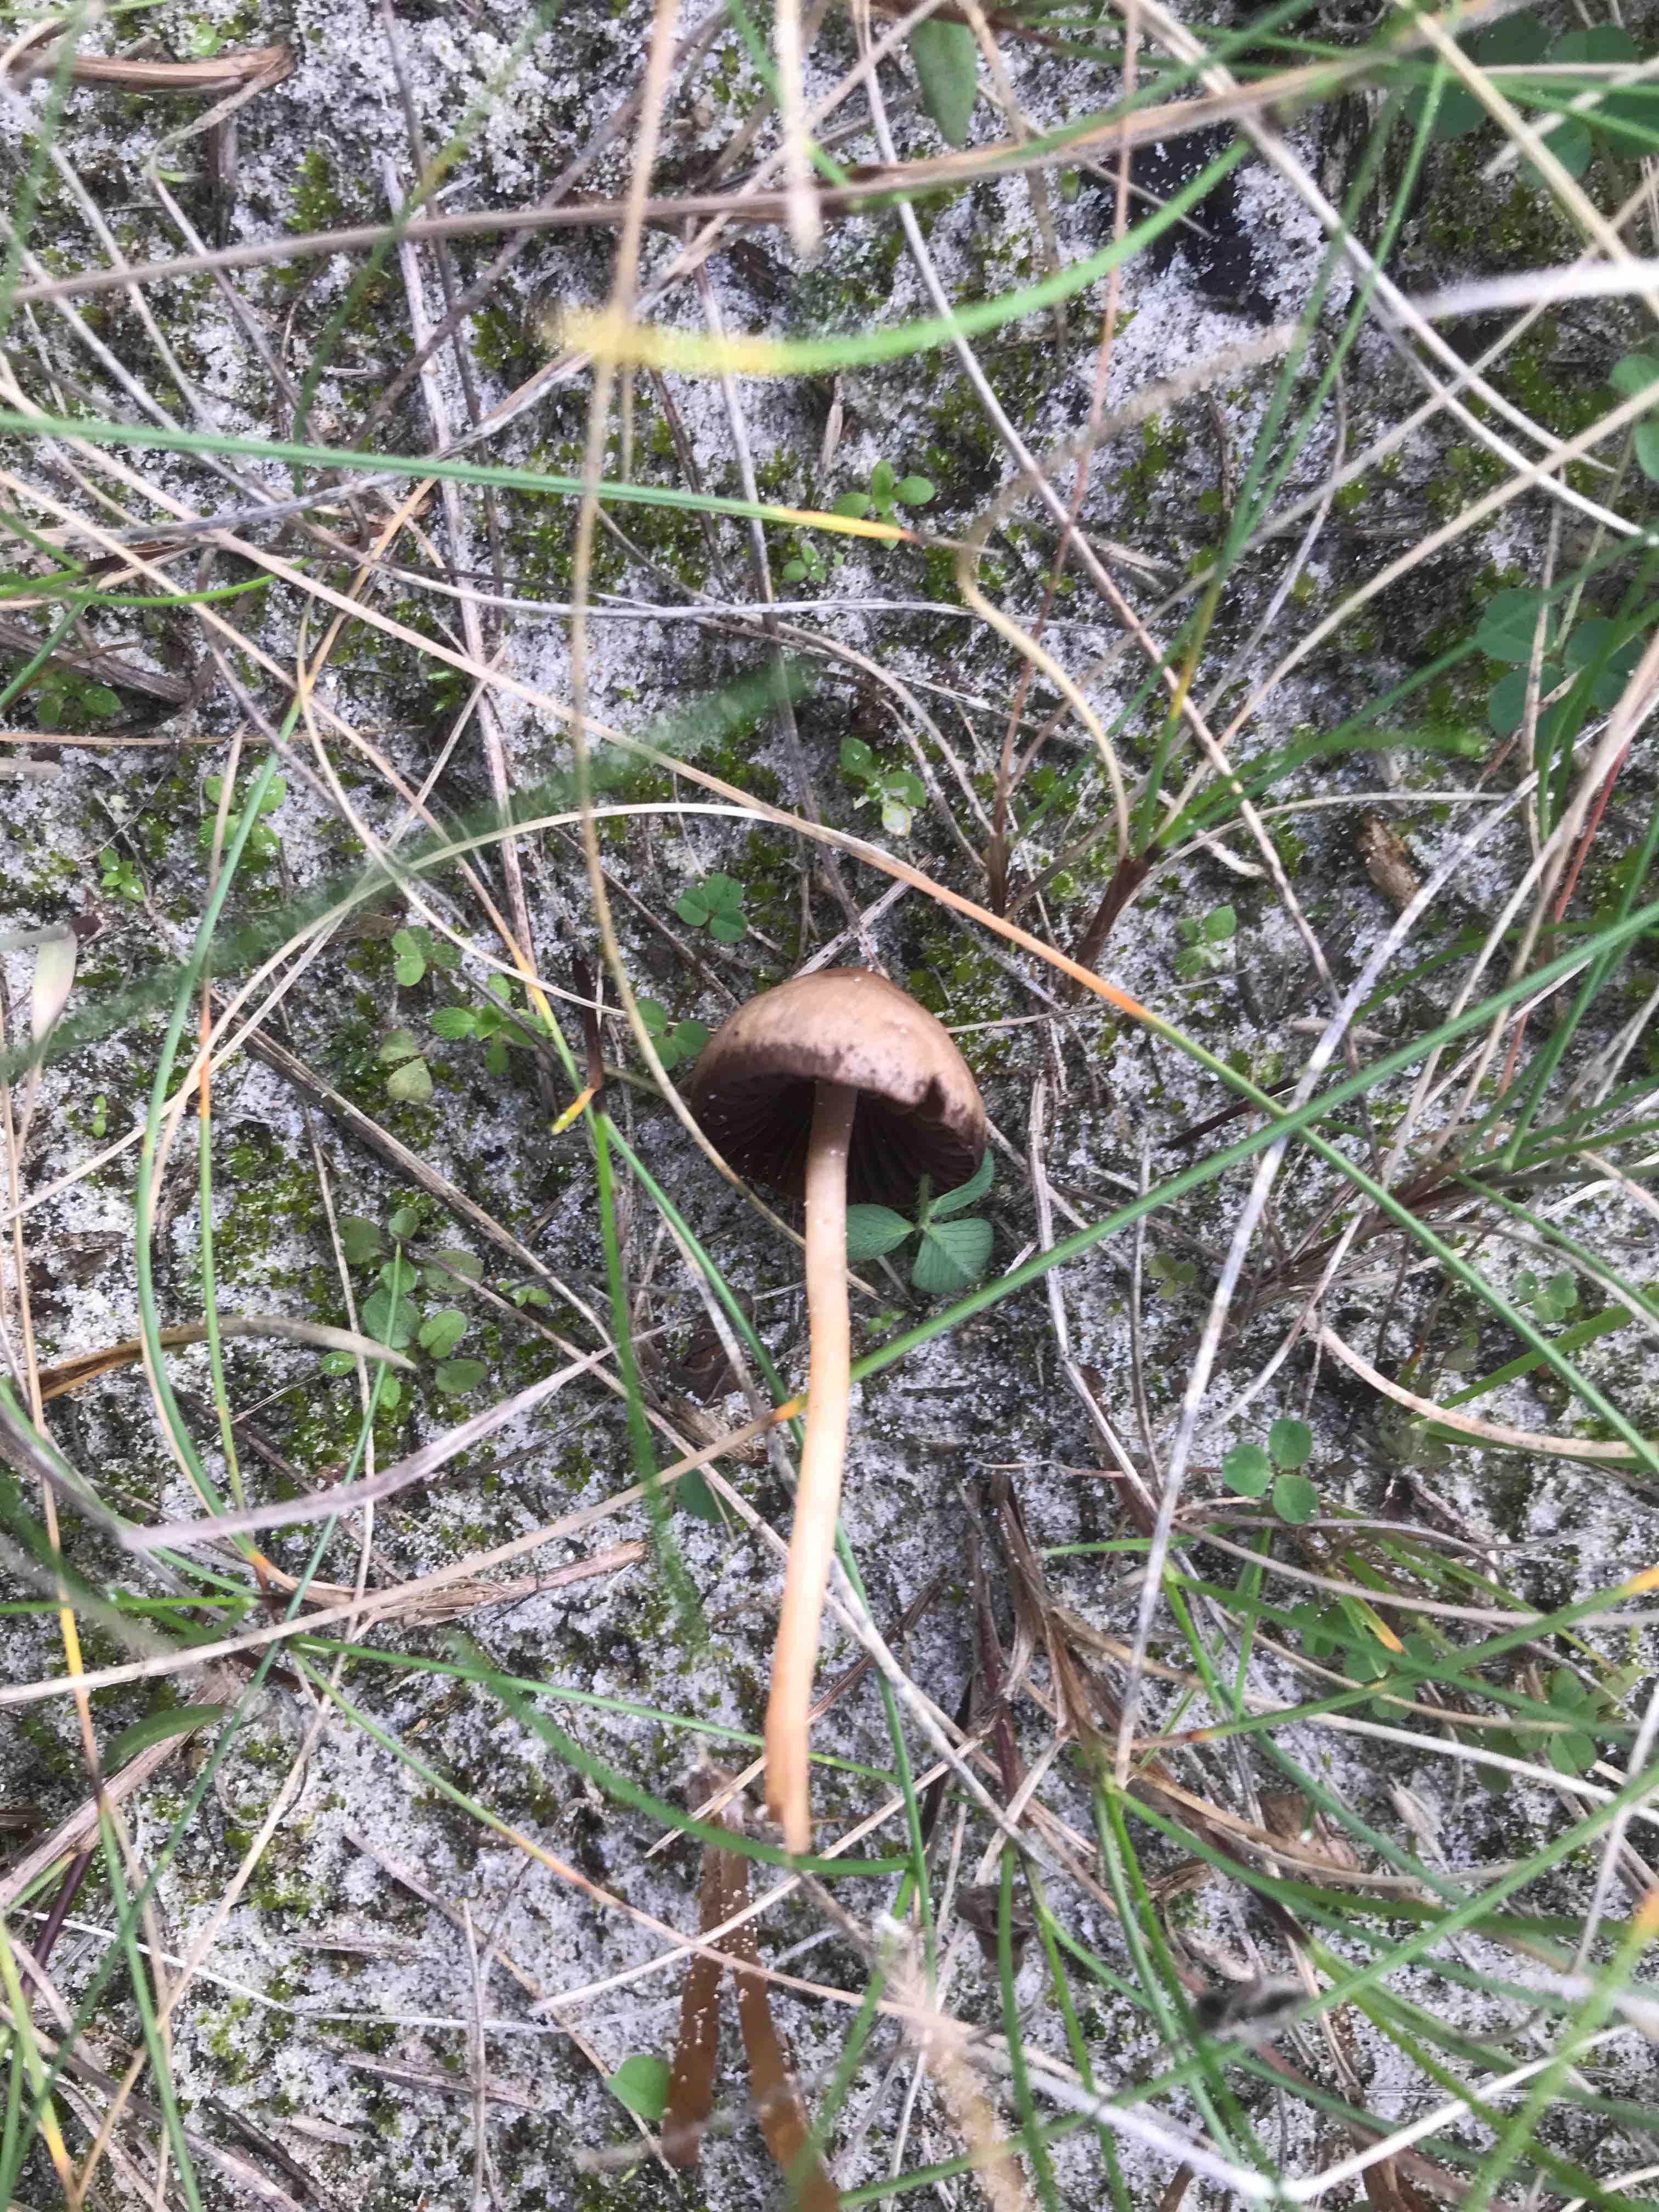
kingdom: Fungi
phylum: Basidiomycota
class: Agaricomycetes
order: Agaricales
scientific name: Agaricales
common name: champignonordenen
